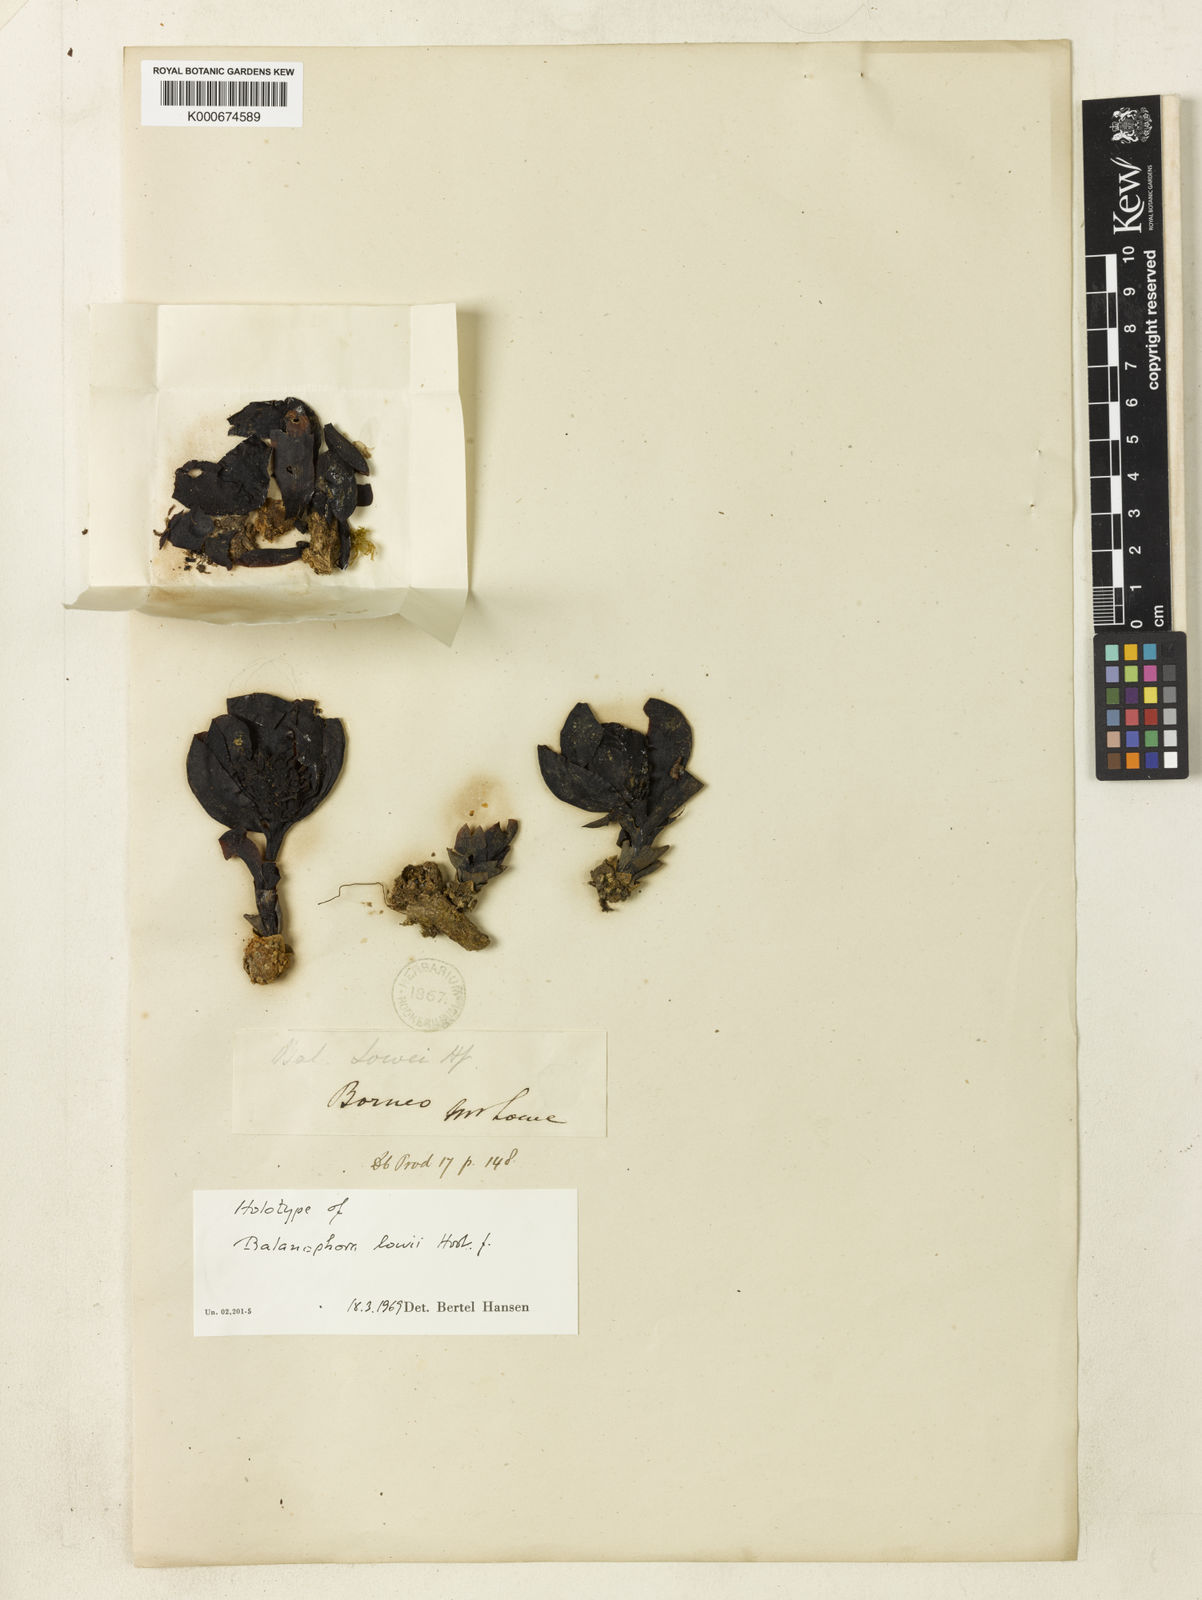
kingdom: Plantae
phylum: Tracheophyta
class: Magnoliopsida
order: Santalales
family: Balanophoraceae
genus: Balanophora
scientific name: Balanophora lowii
